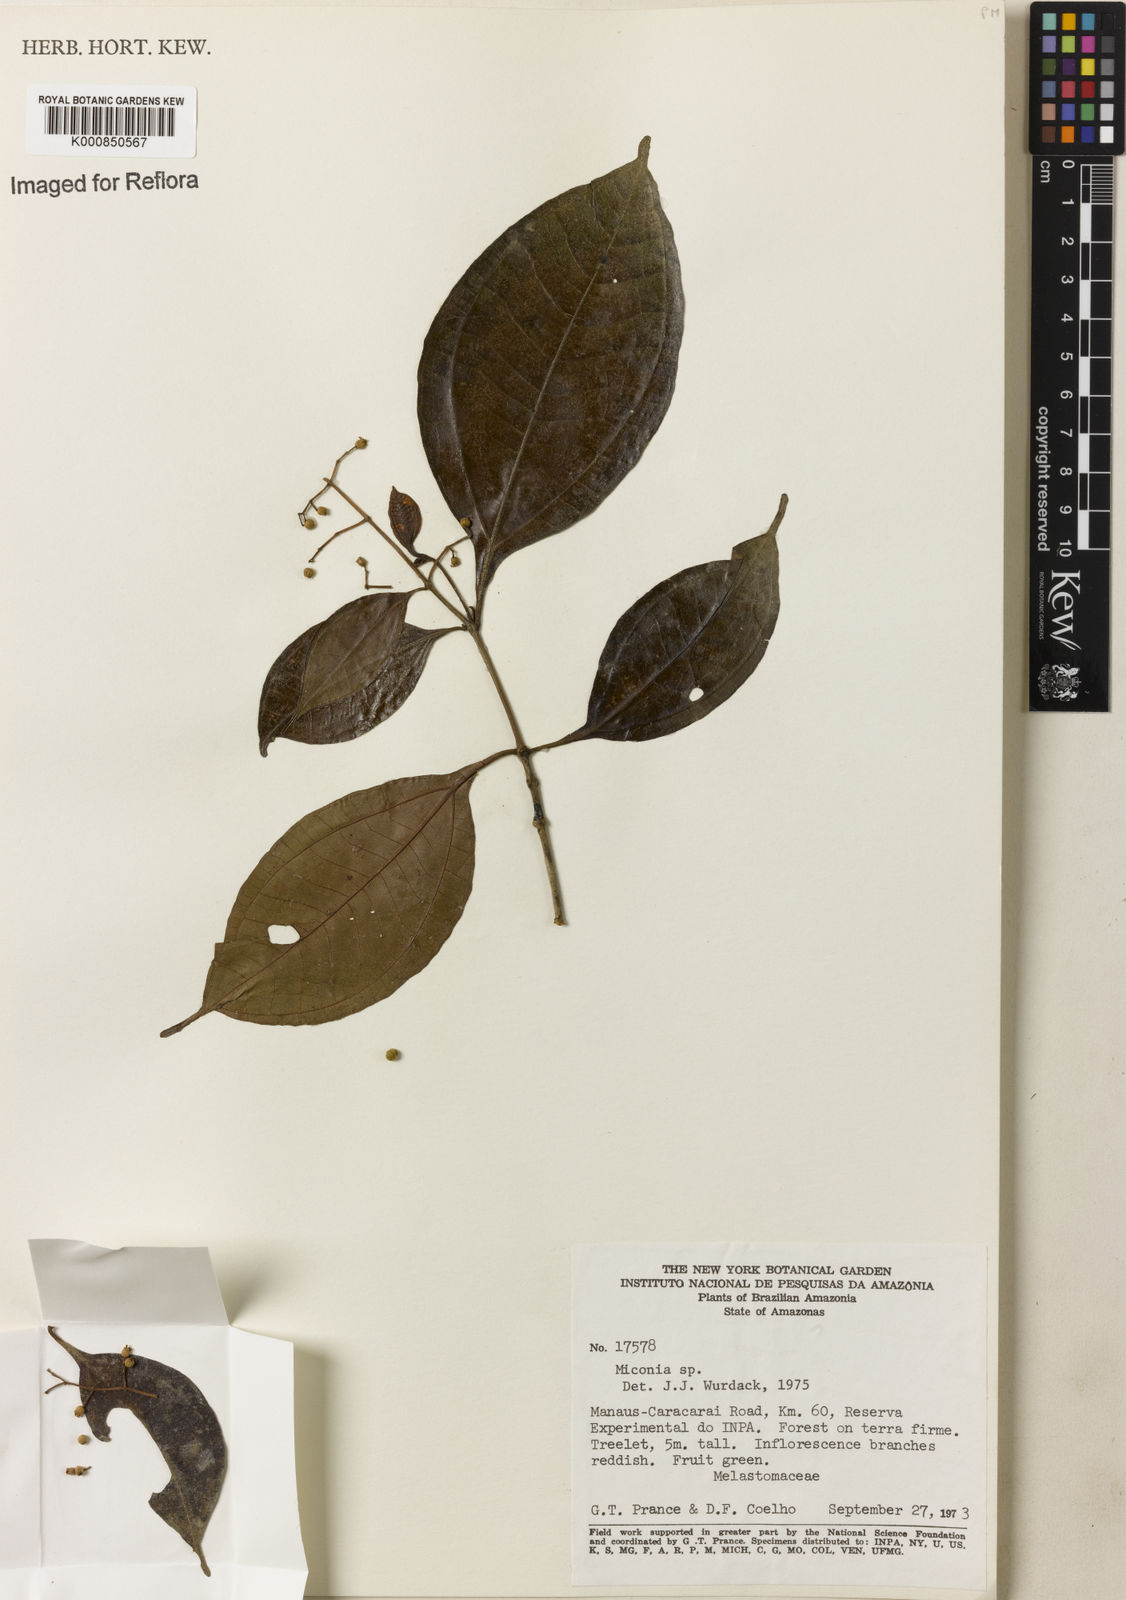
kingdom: Plantae
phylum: Tracheophyta
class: Magnoliopsida
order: Myrtales
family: Melastomataceae
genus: Miconia
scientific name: Miconia
